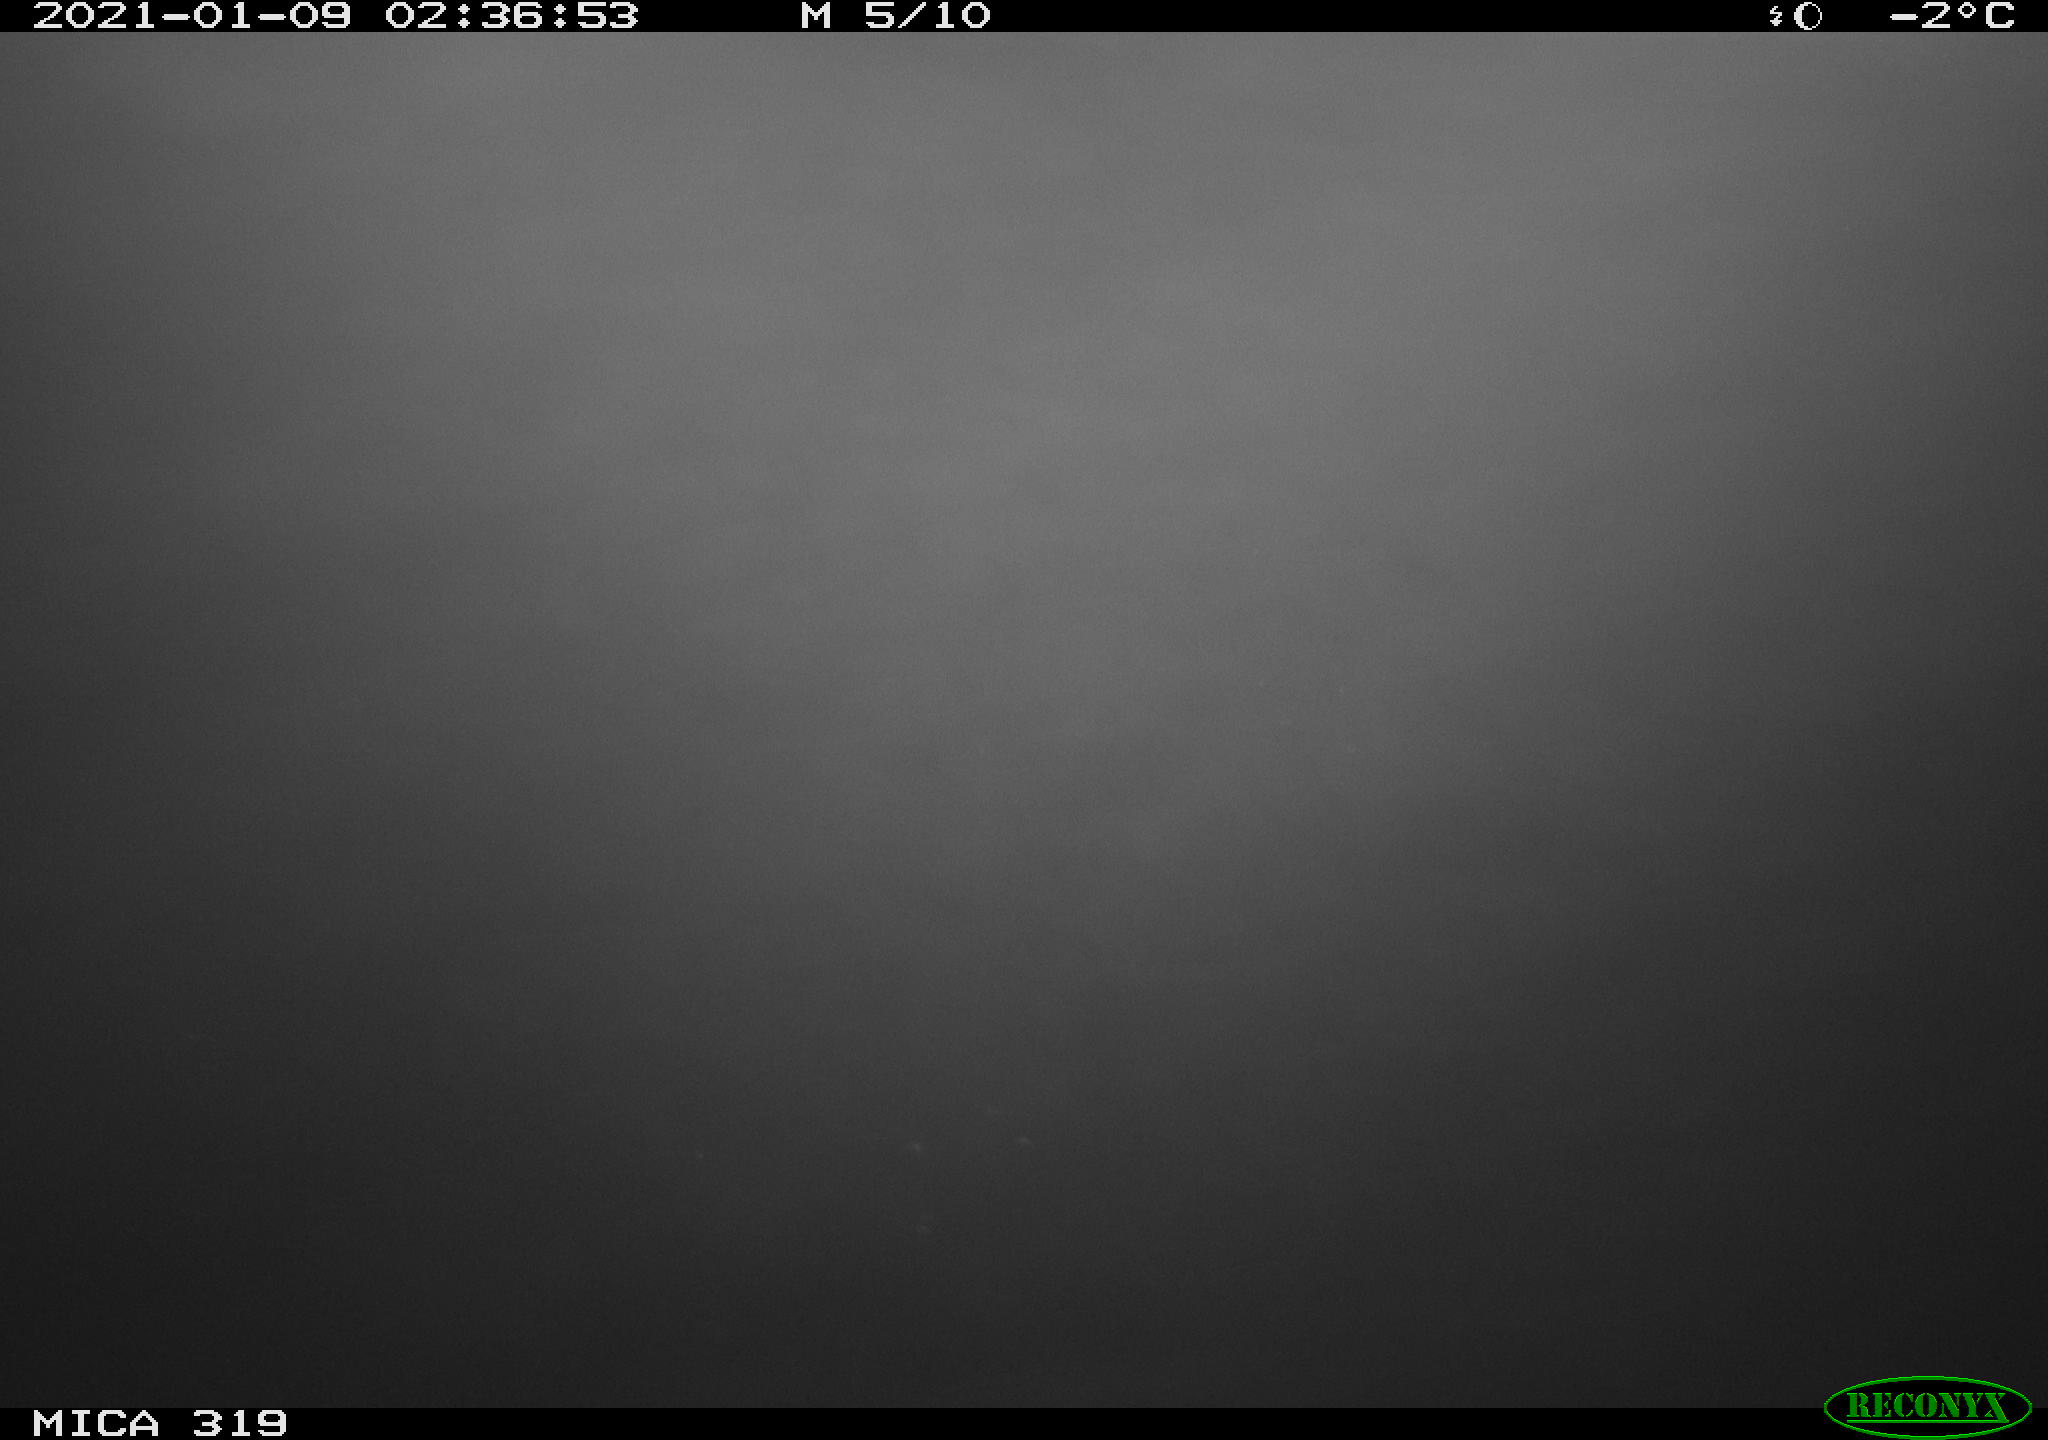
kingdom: Animalia
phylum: Chordata
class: Aves
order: Anseriformes
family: Anatidae
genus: Anas
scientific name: Anas platyrhynchos
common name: Mallard
